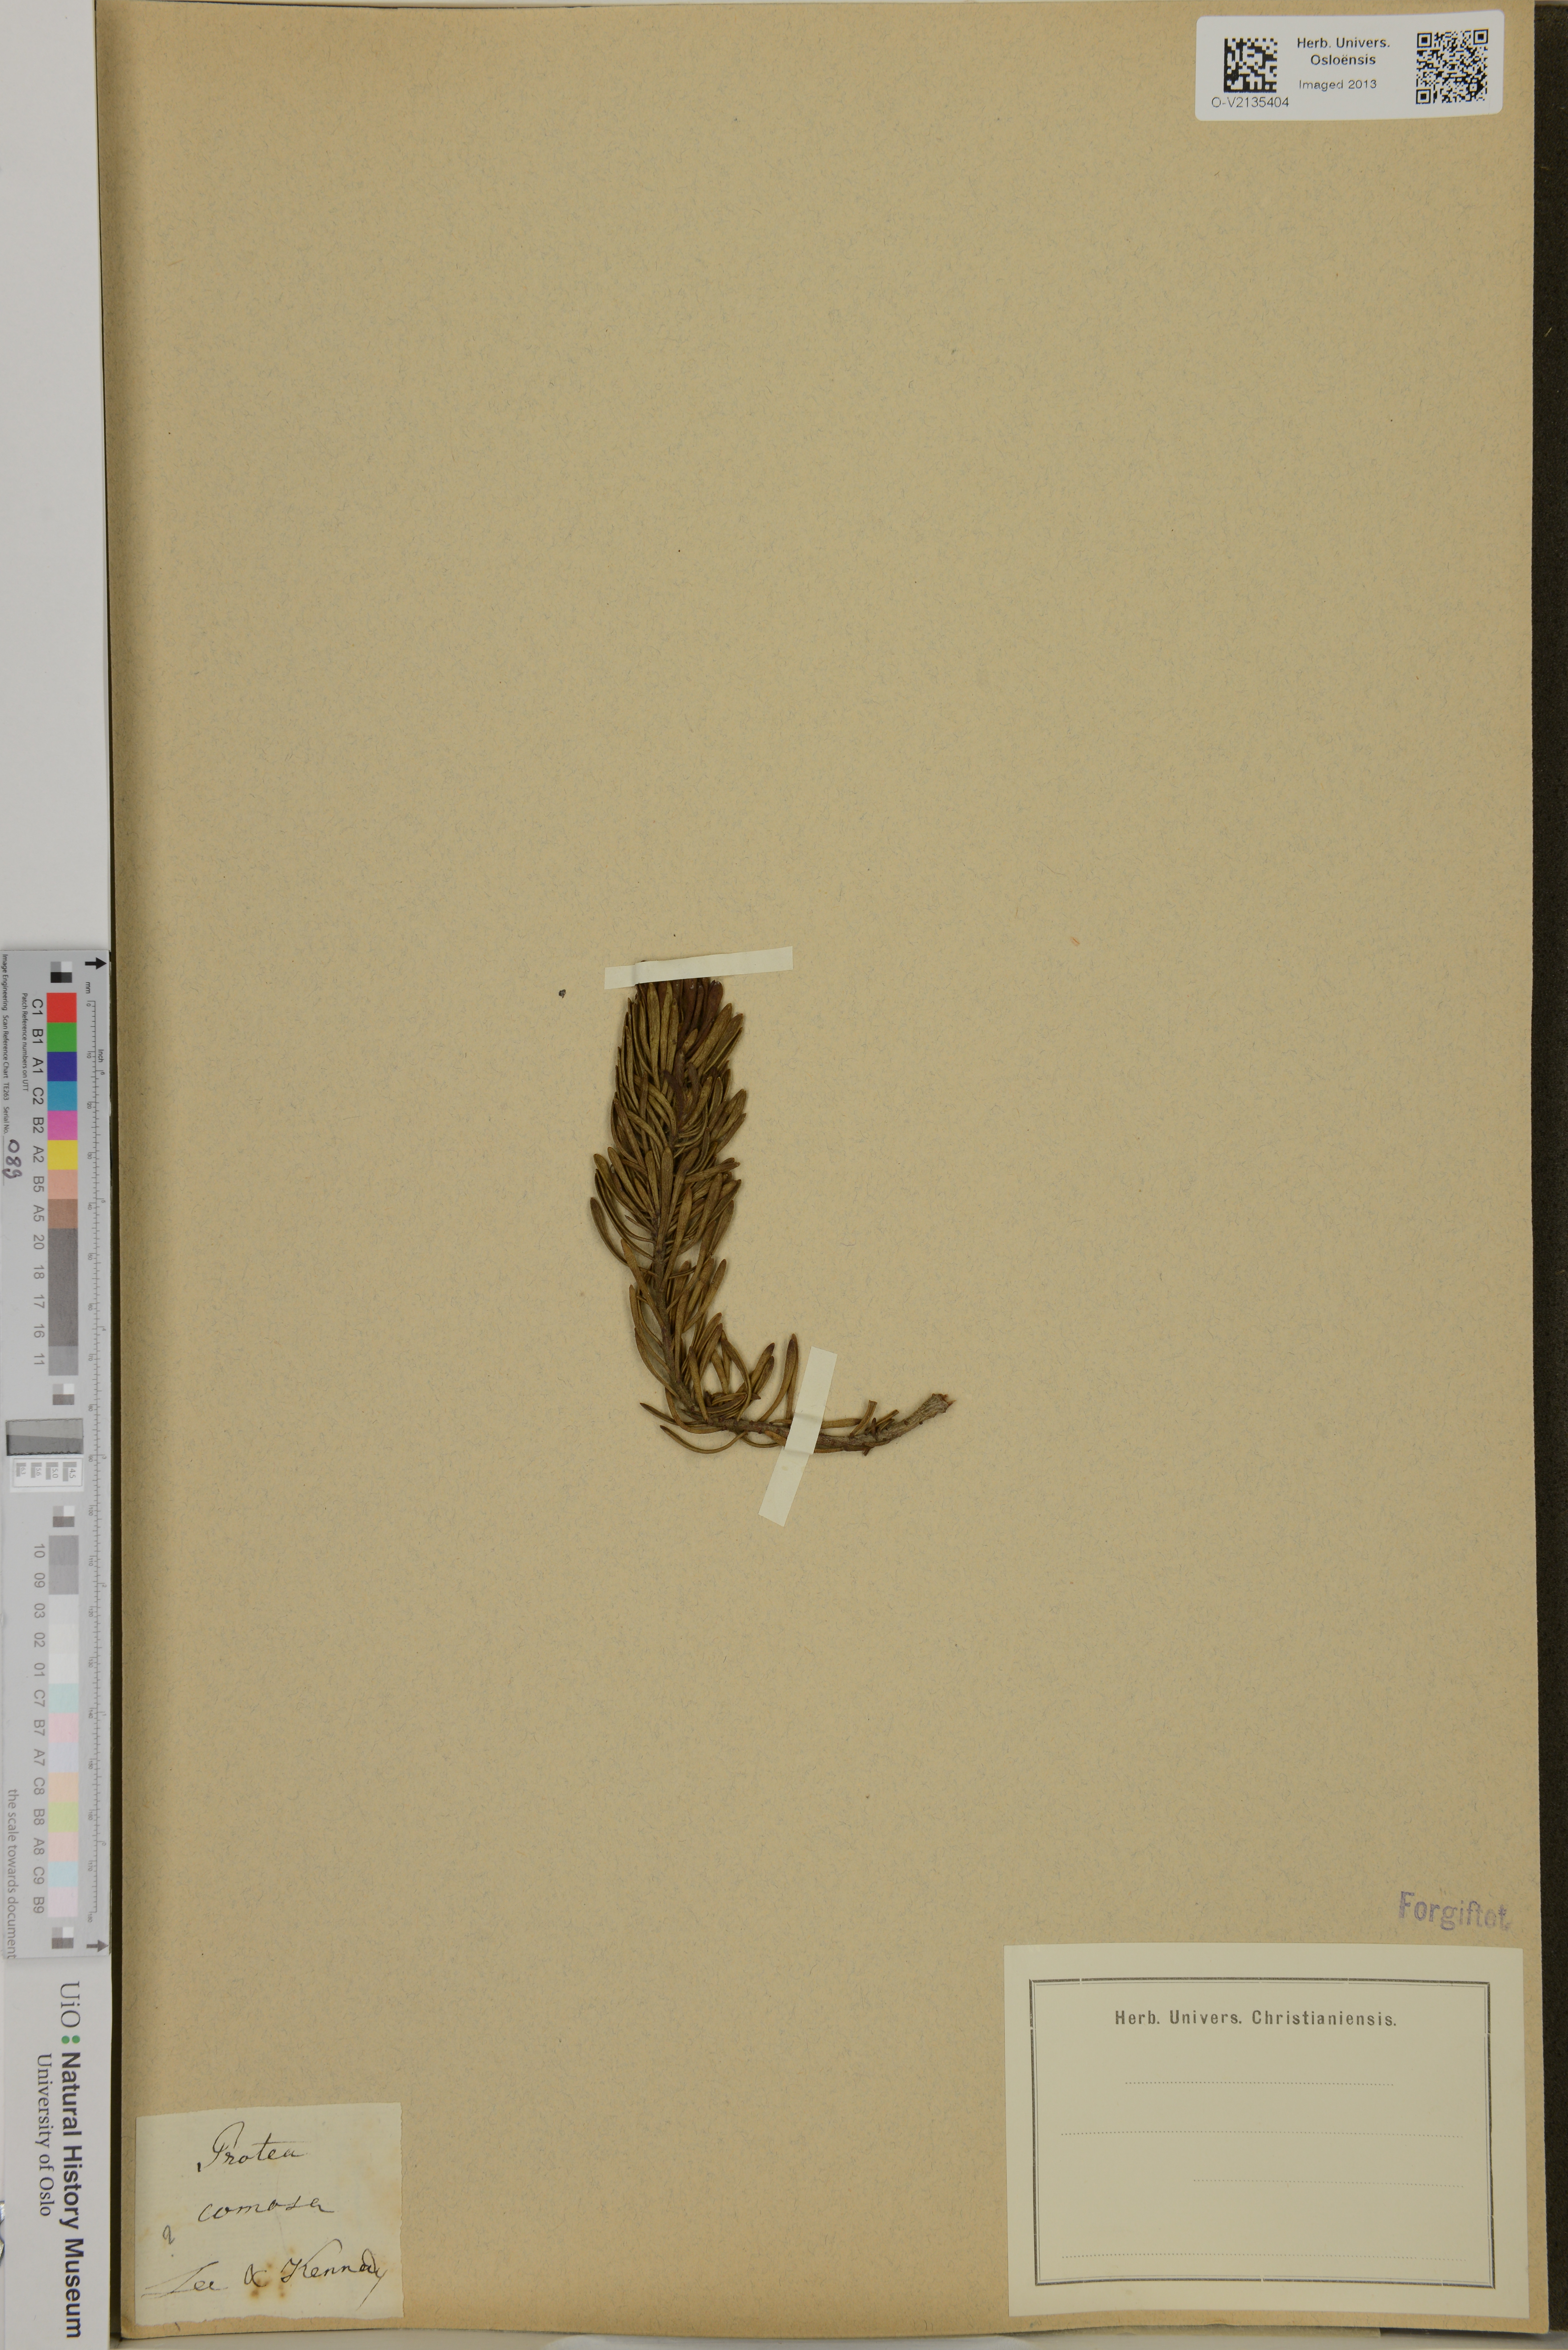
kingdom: Plantae
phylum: Tracheophyta
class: Magnoliopsida
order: Proteales
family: Proteaceae
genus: Leucadendron
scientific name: Leucadendron comosum
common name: Ridge-cone conebush
